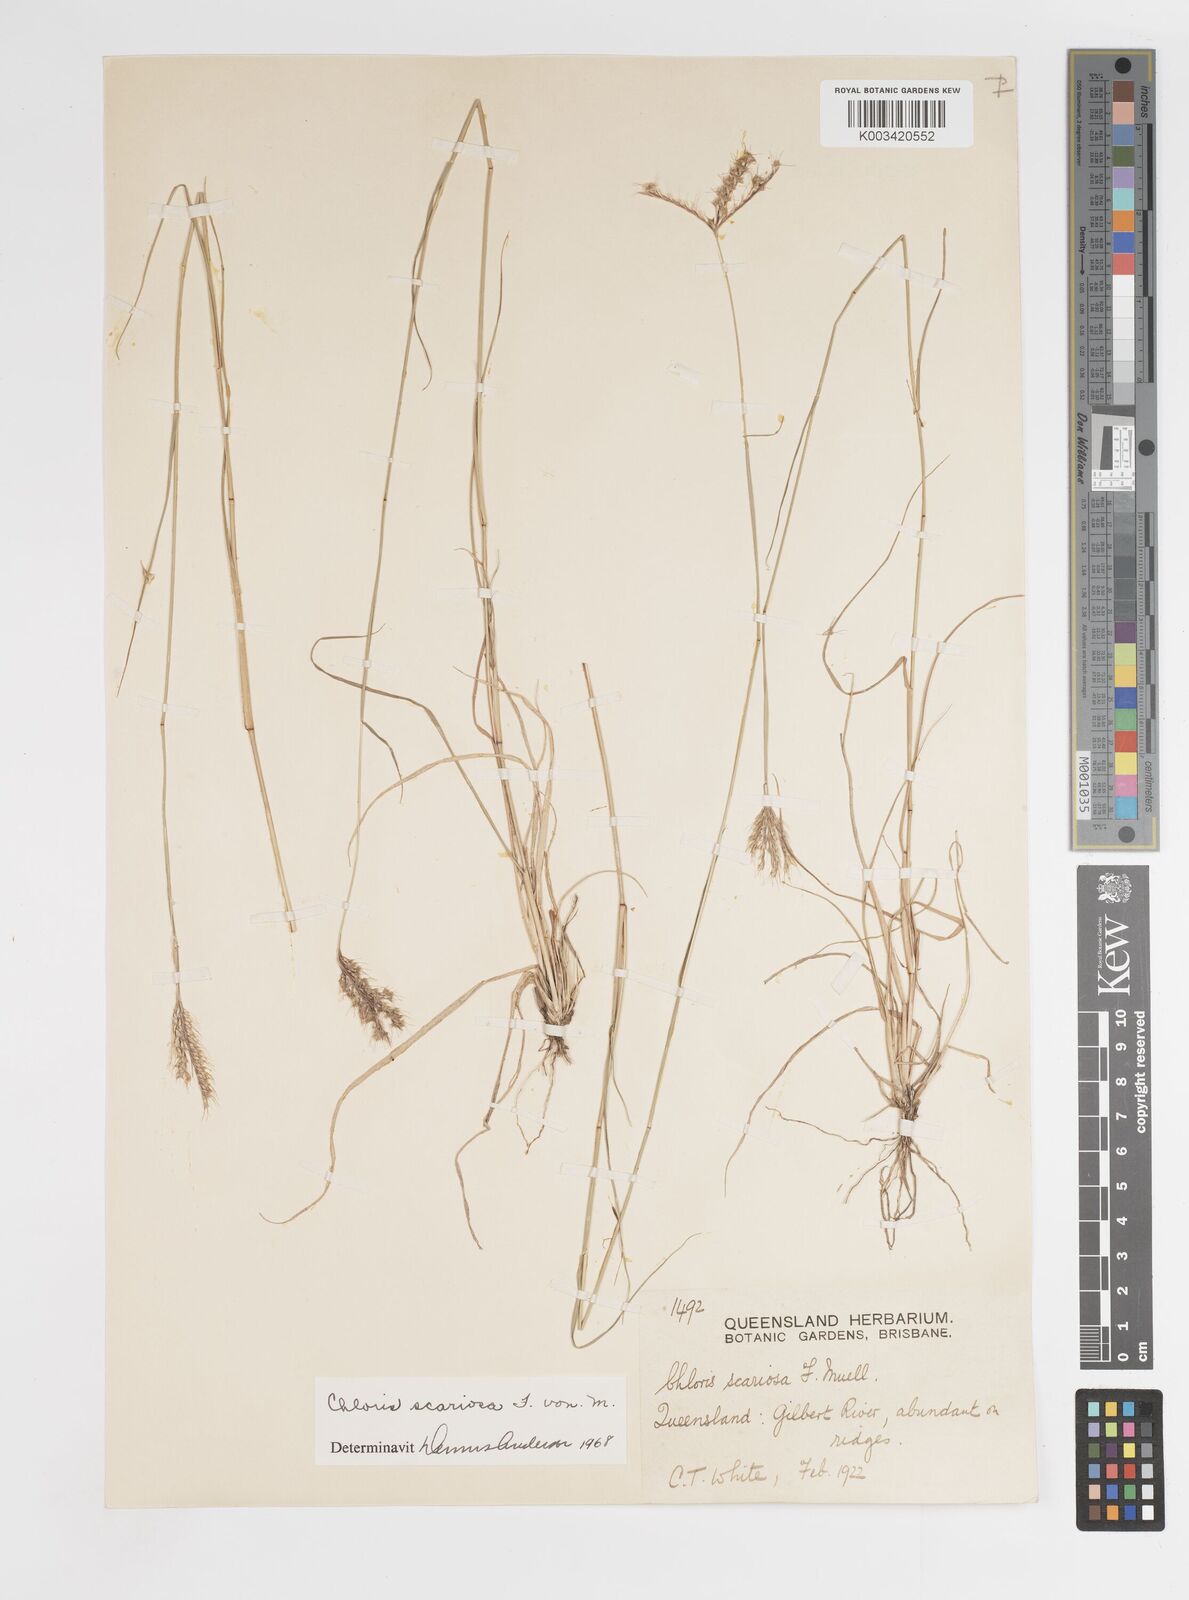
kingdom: Plantae
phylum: Tracheophyta
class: Liliopsida
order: Poales
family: Poaceae
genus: Oxychloris
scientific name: Oxychloris scariosa
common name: Winged windmill grass
